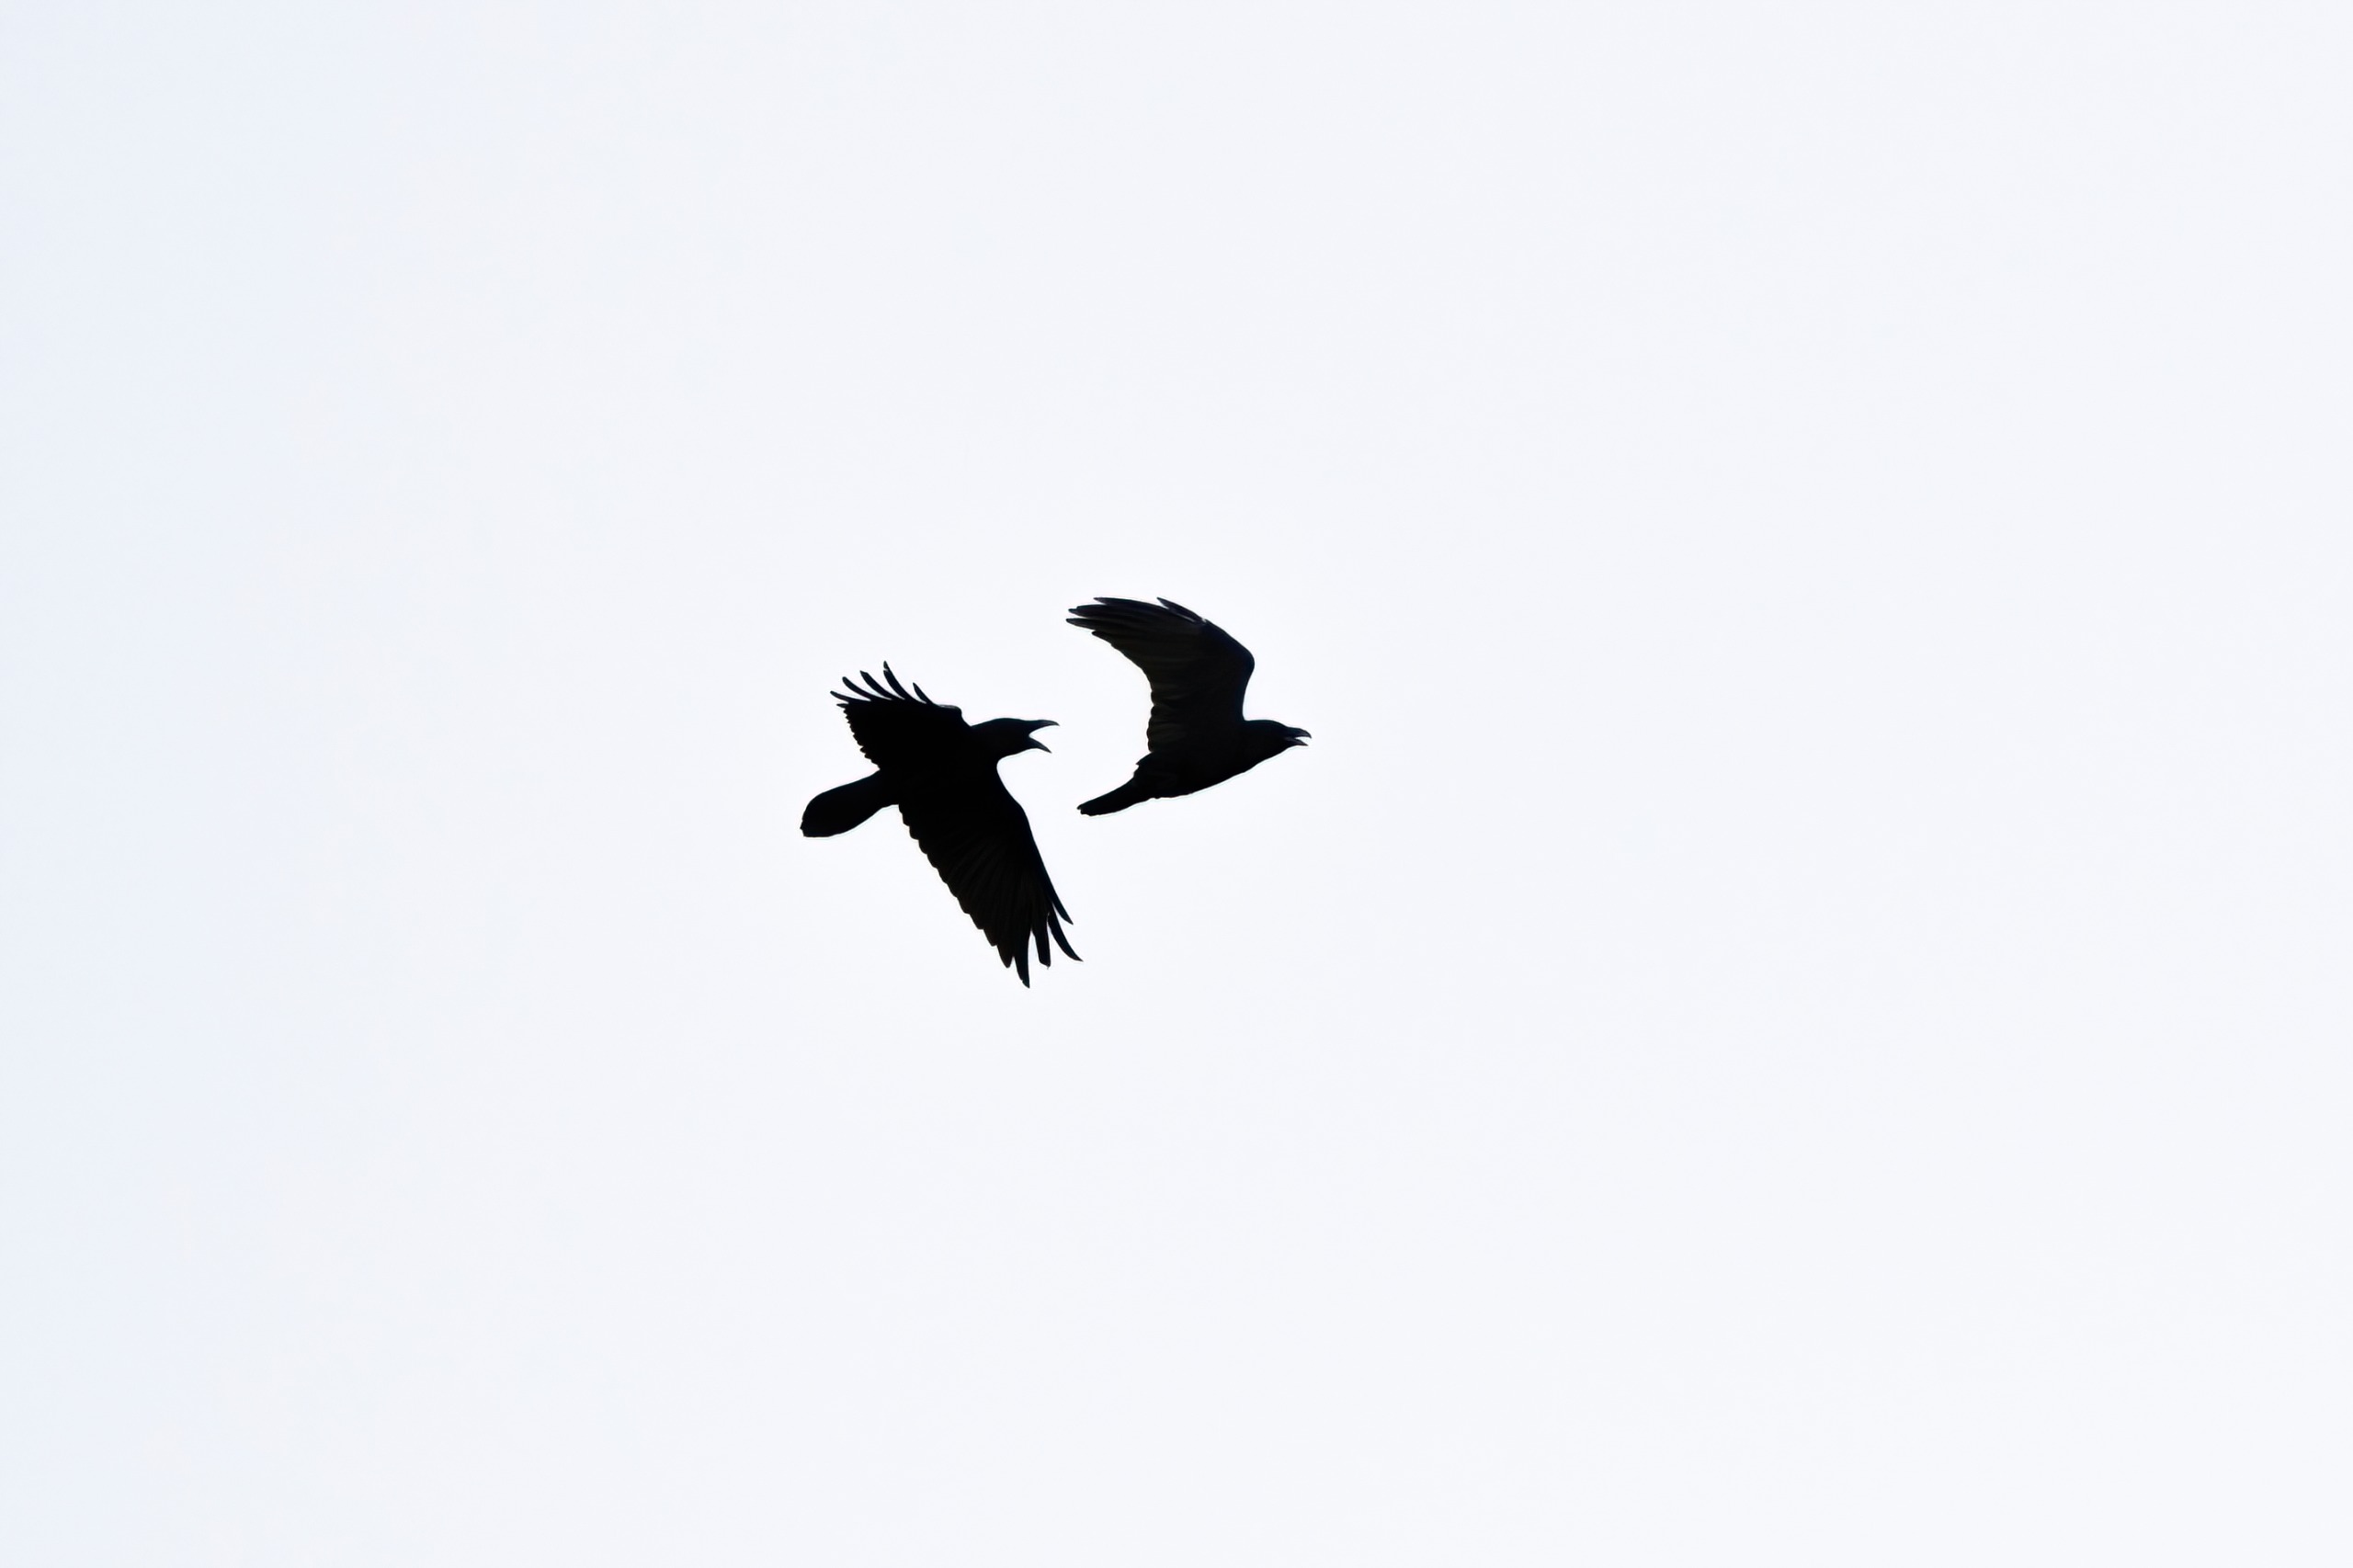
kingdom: Animalia
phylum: Chordata
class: Aves
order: Passeriformes
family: Corvidae
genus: Corvus
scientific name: Corvus corax
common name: Ravn
